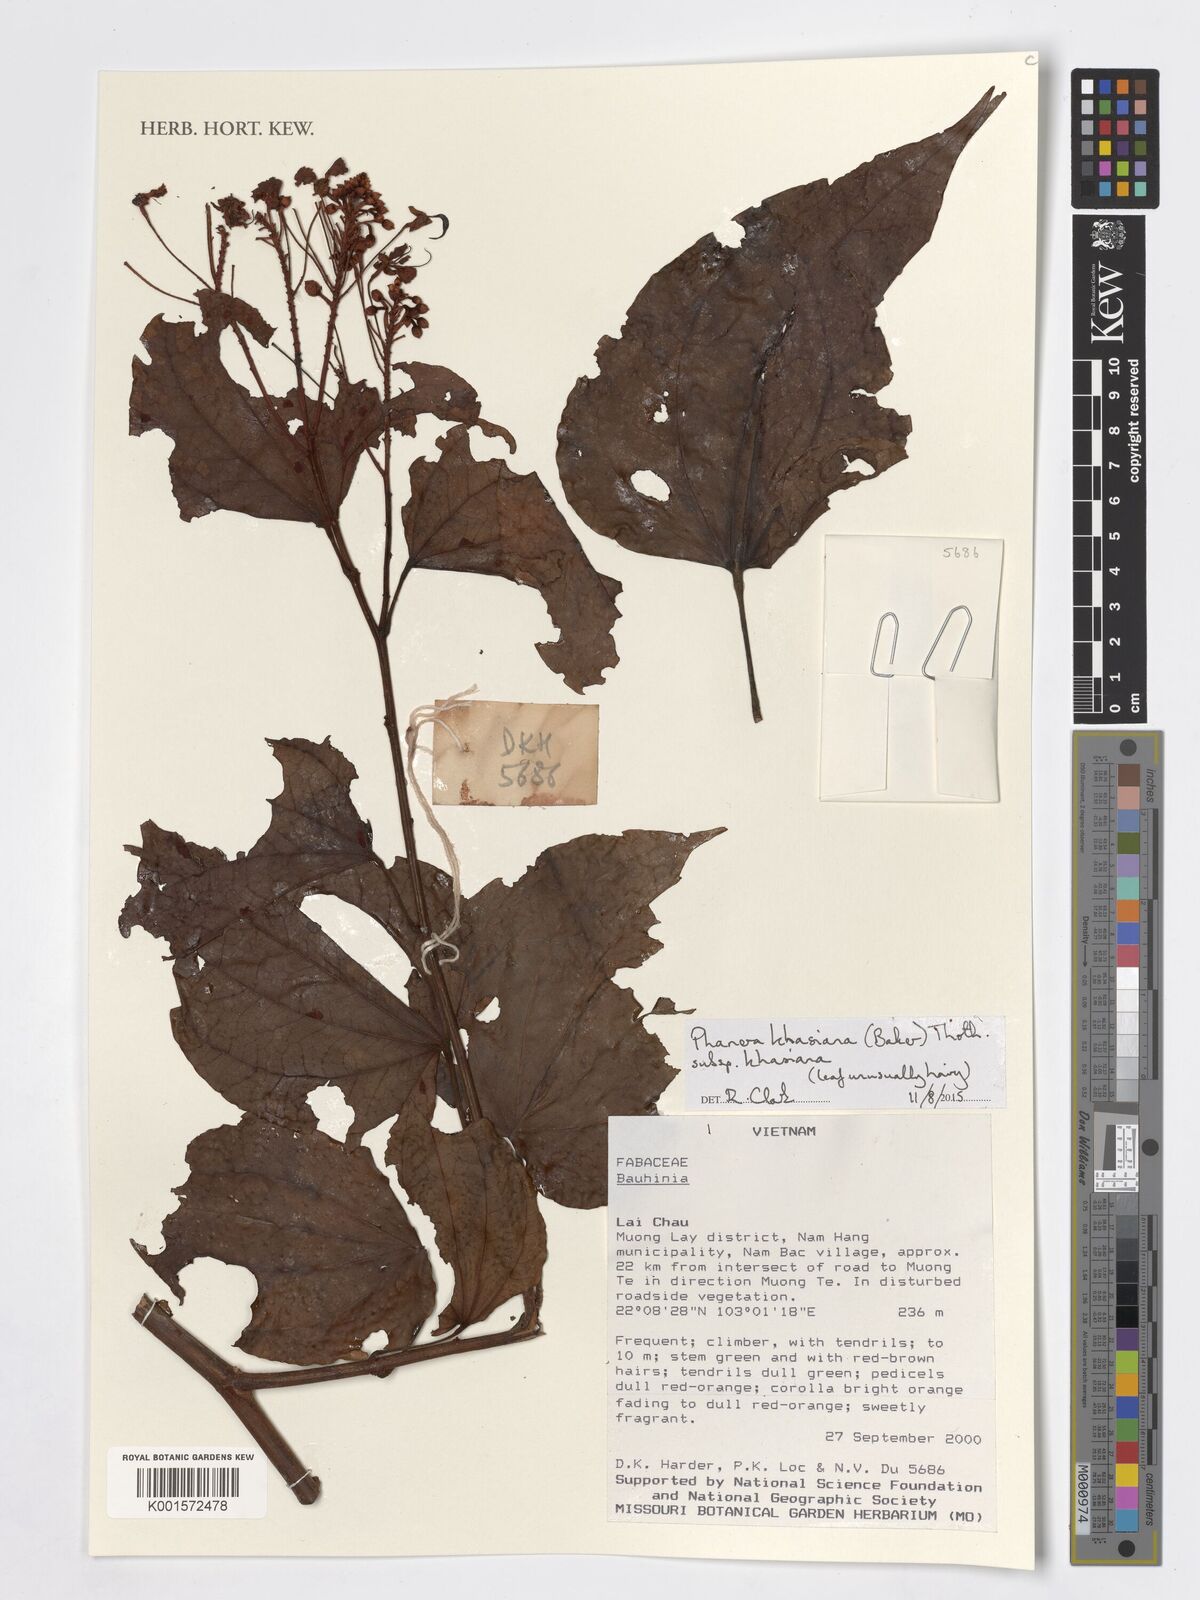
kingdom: Plantae
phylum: Tracheophyta
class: Magnoliopsida
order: Fabales
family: Fabaceae
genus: Phanera
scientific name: Phanera khasiana
